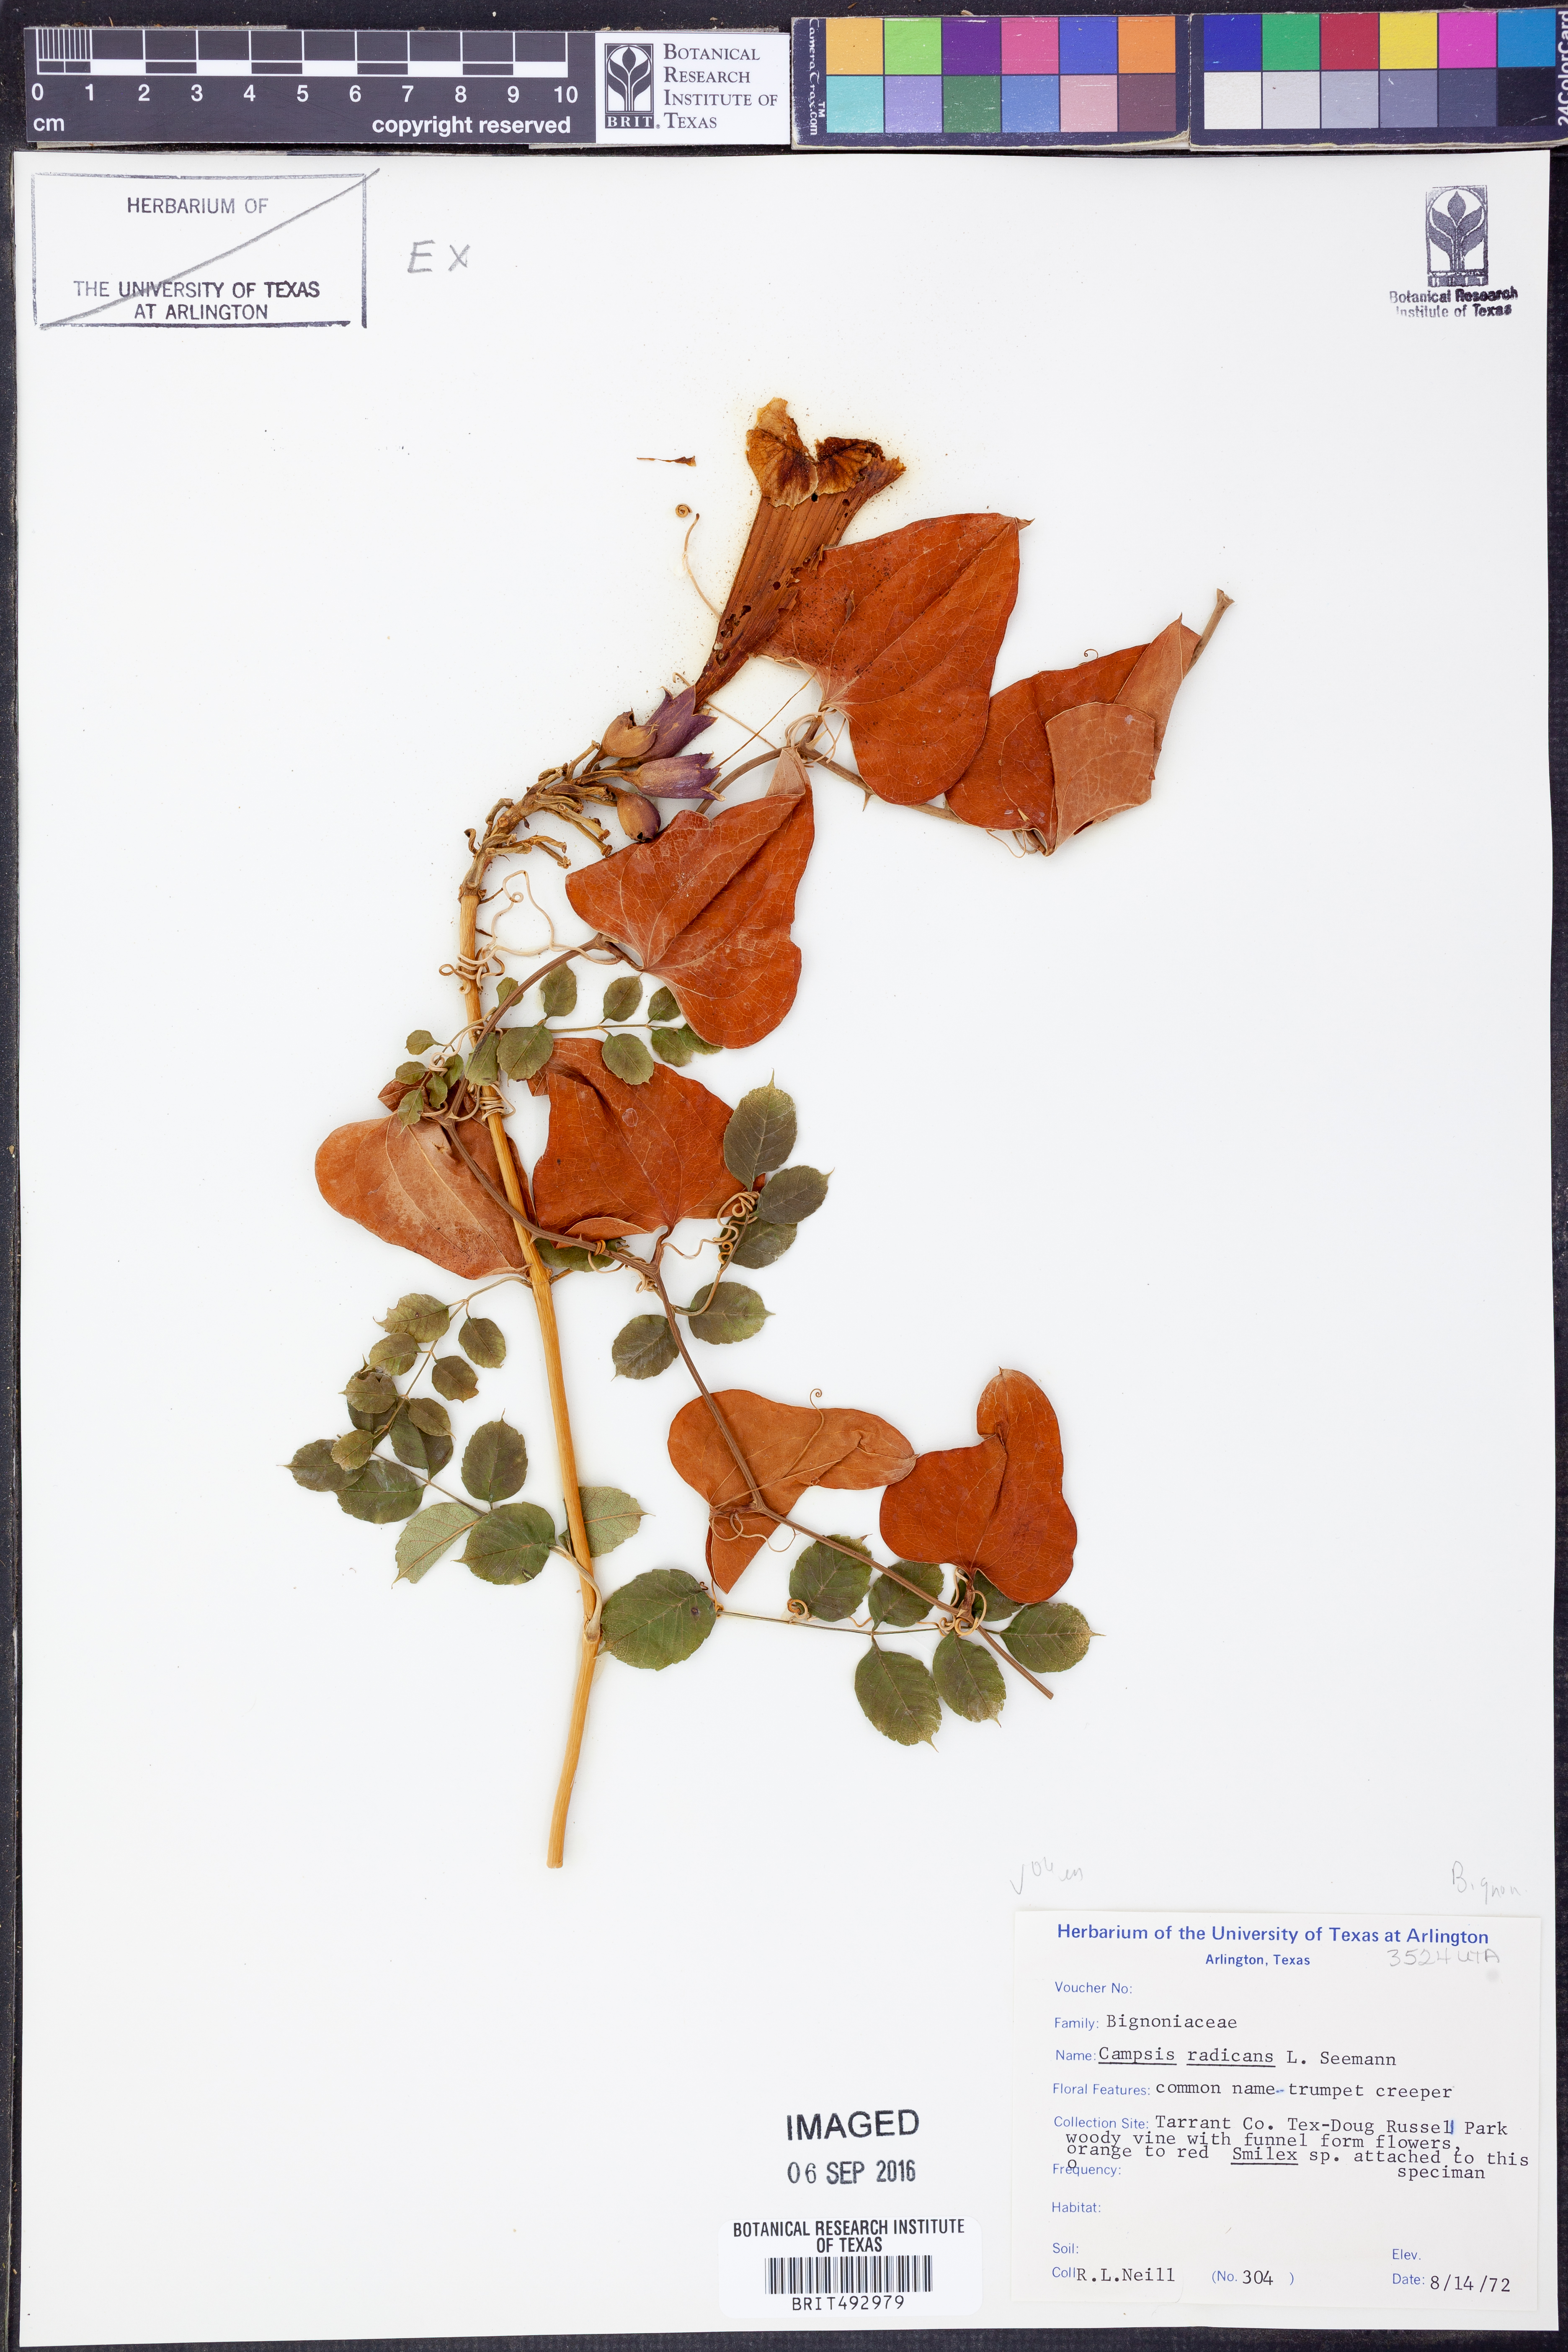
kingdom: Plantae
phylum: Tracheophyta
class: Magnoliopsida
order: Lamiales
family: Bignoniaceae
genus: Campsis
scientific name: Campsis radicans
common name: Trumpet-creeper
